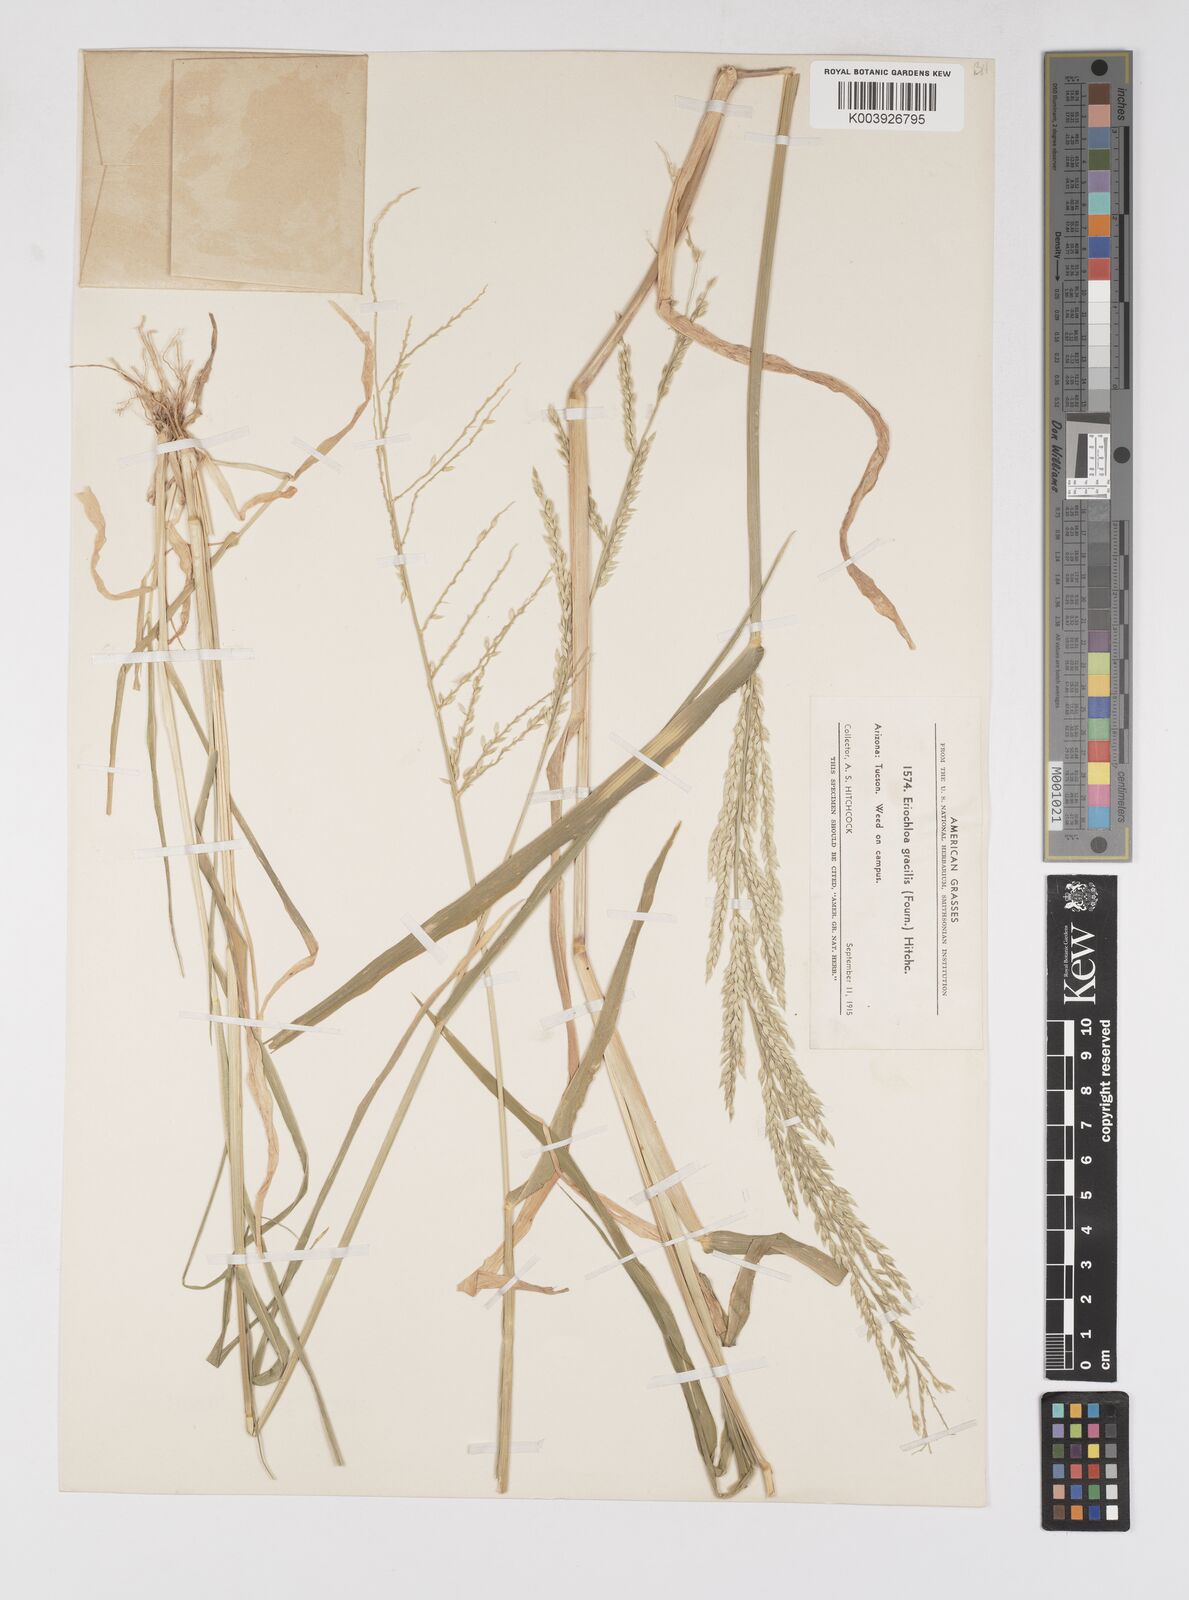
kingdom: Plantae
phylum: Tracheophyta
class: Liliopsida
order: Poales
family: Poaceae
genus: Eriochloa
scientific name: Eriochloa acuminata
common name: Southwestern cup grass
